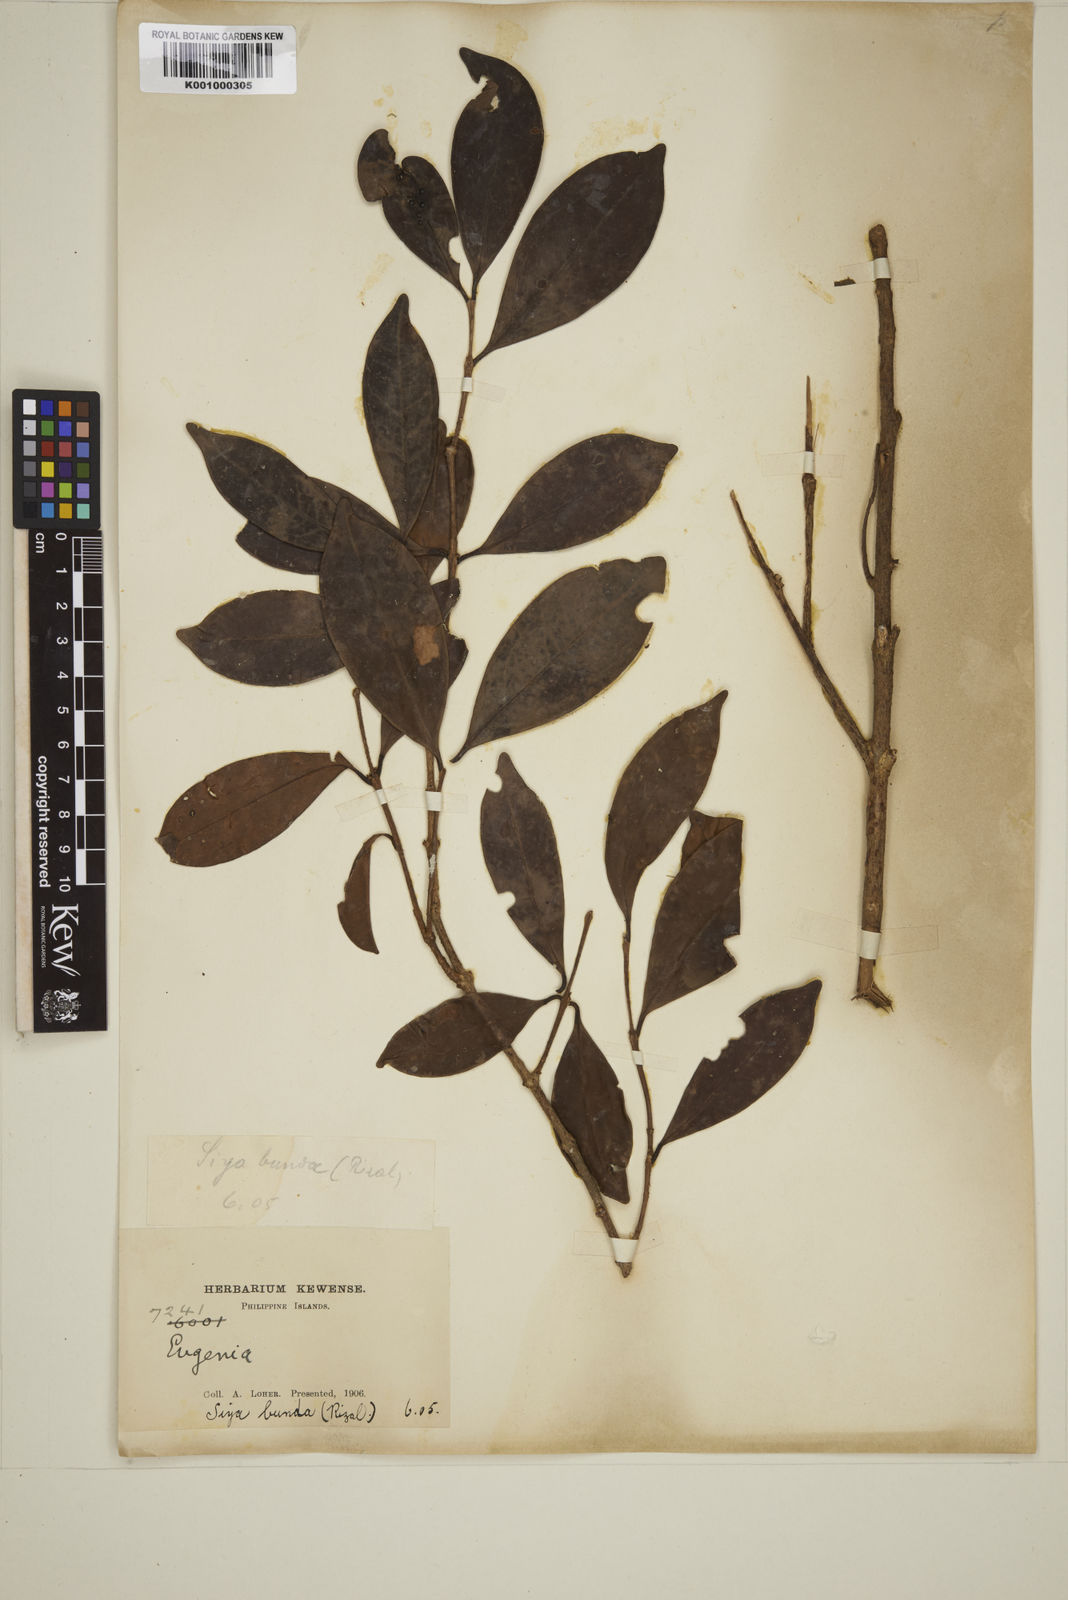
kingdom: Plantae
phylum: Tracheophyta
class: Magnoliopsida
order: Myrtales
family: Myrtaceae
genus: Eugenia
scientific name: Eugenia tulanan
